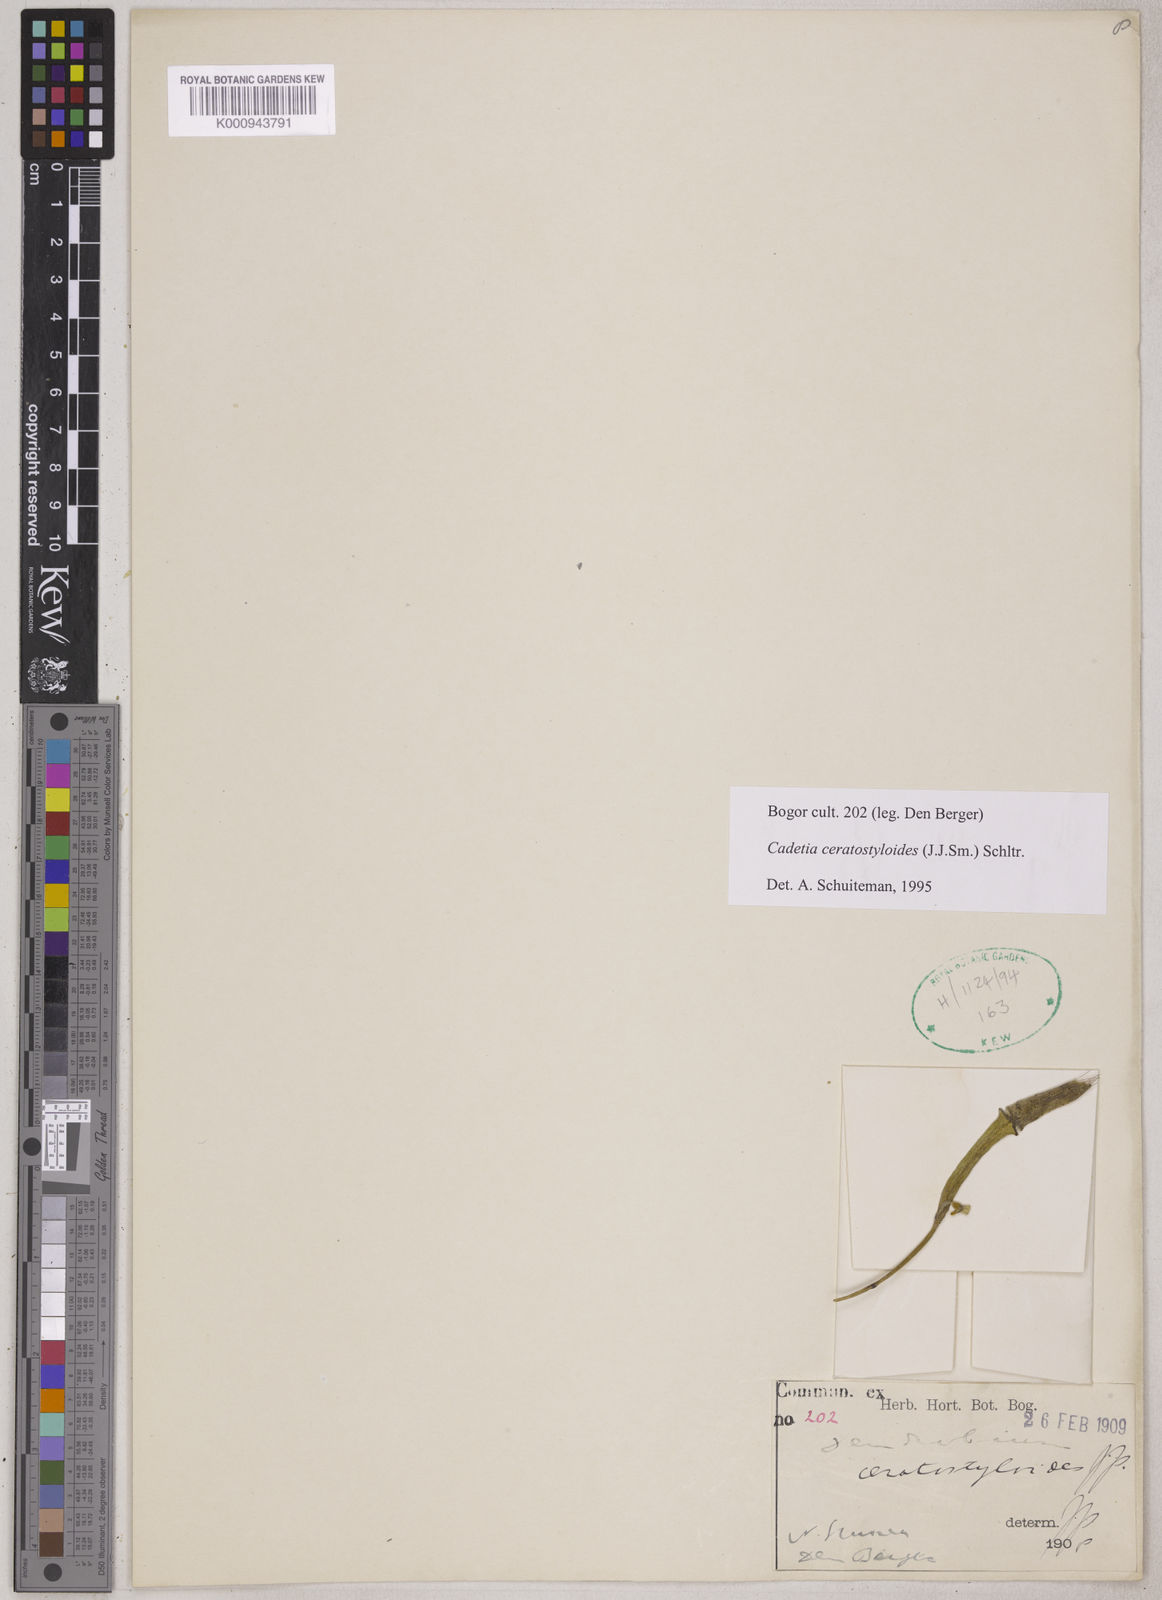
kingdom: Plantae
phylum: Tracheophyta
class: Liliopsida
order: Asparagales
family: Orchidaceae
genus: Dendrobium
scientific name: Dendrobium ceratostyloides
